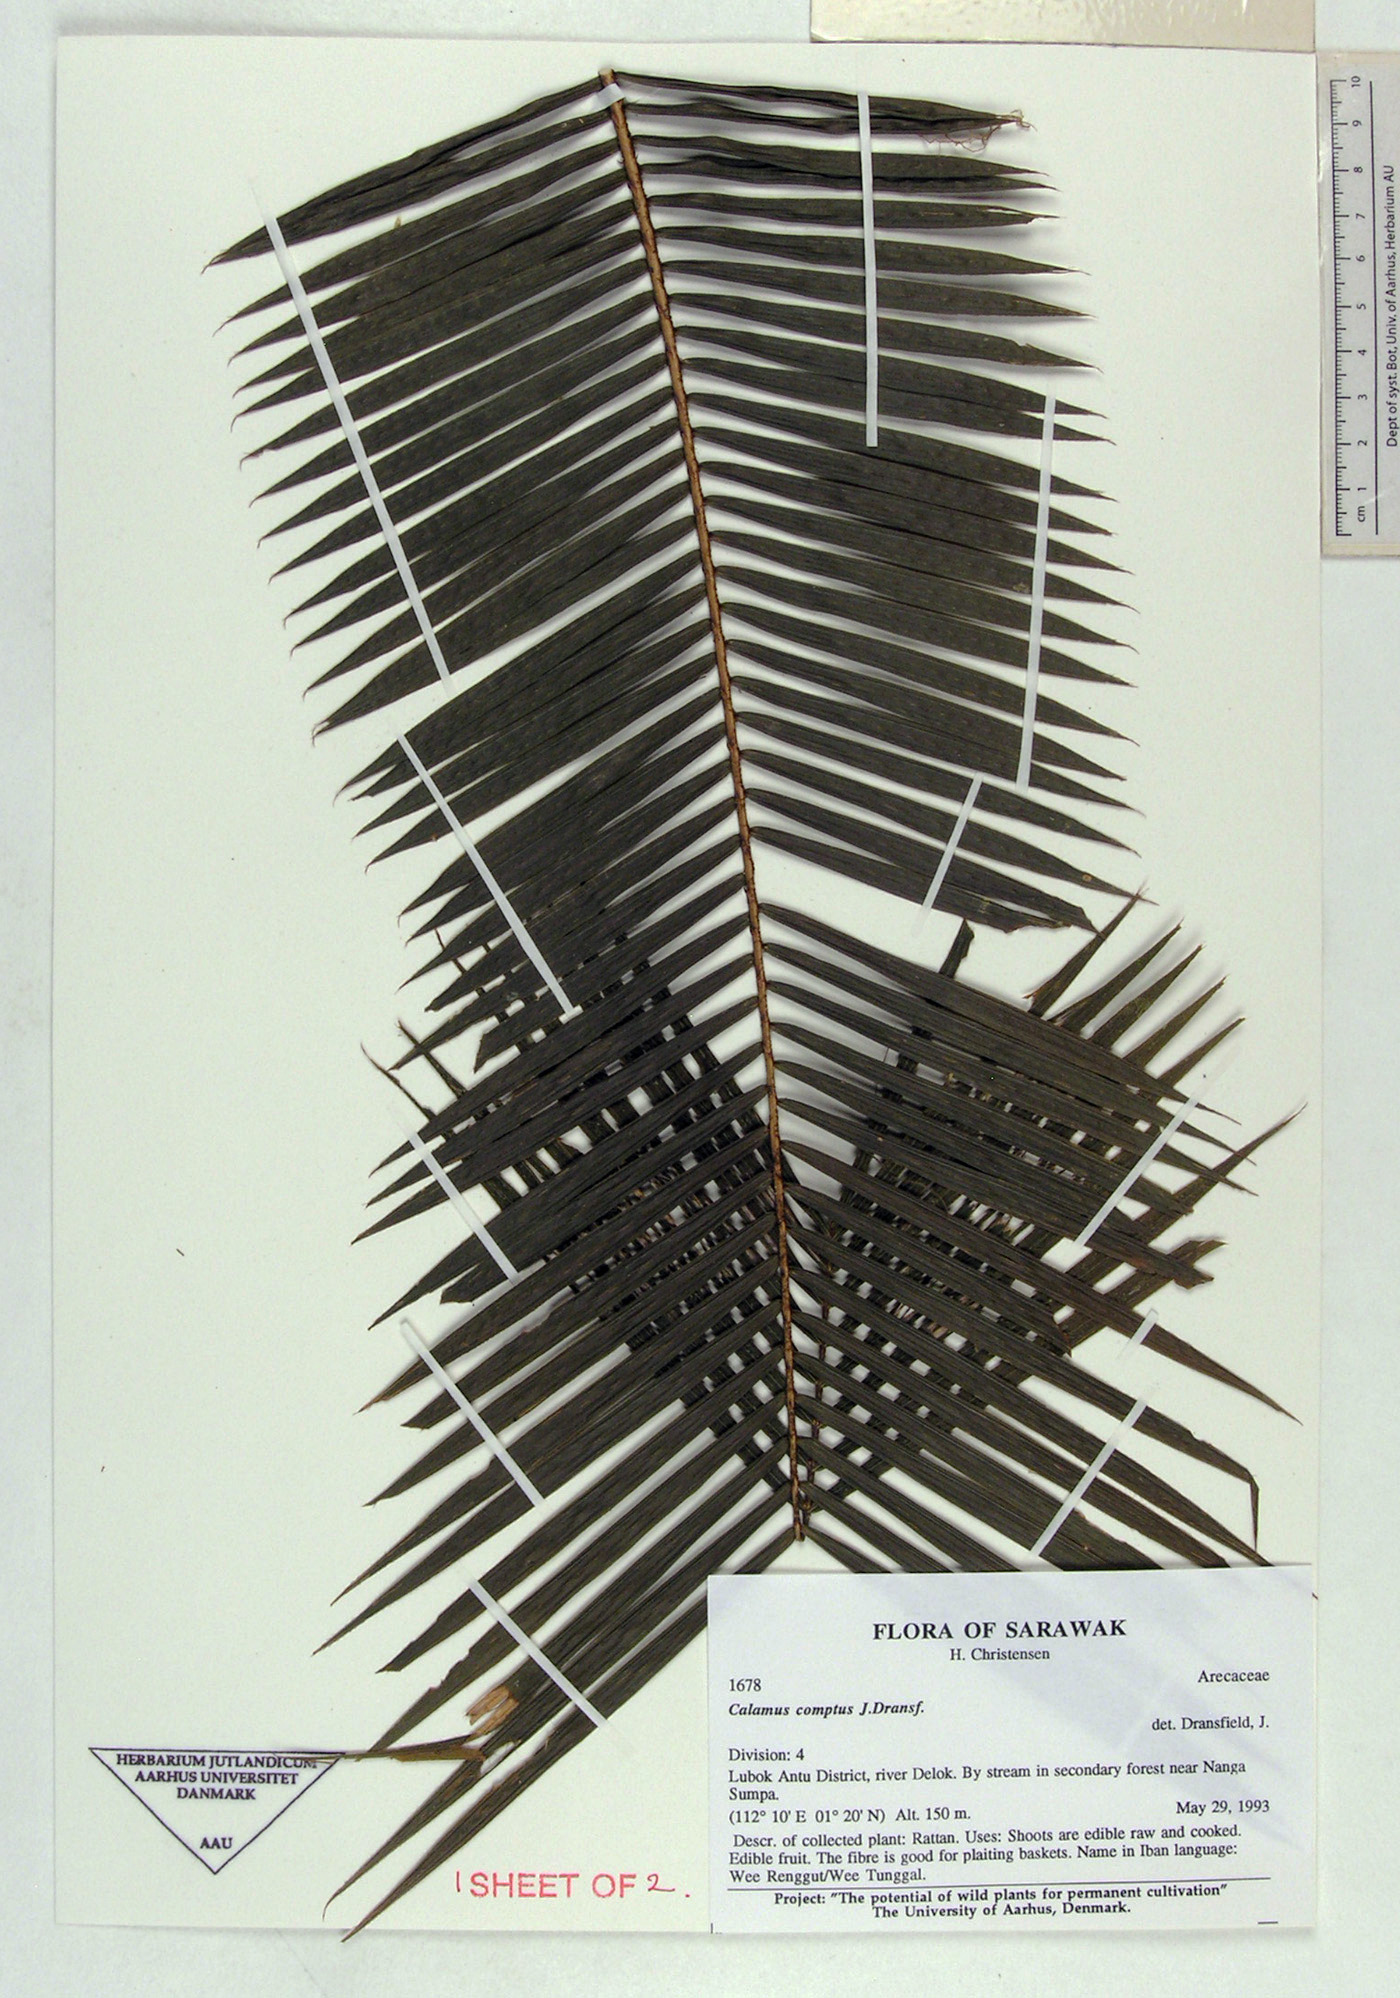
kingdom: Plantae
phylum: Tracheophyta
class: Liliopsida
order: Arecales
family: Arecaceae
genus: Calamus
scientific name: Calamus comptus
